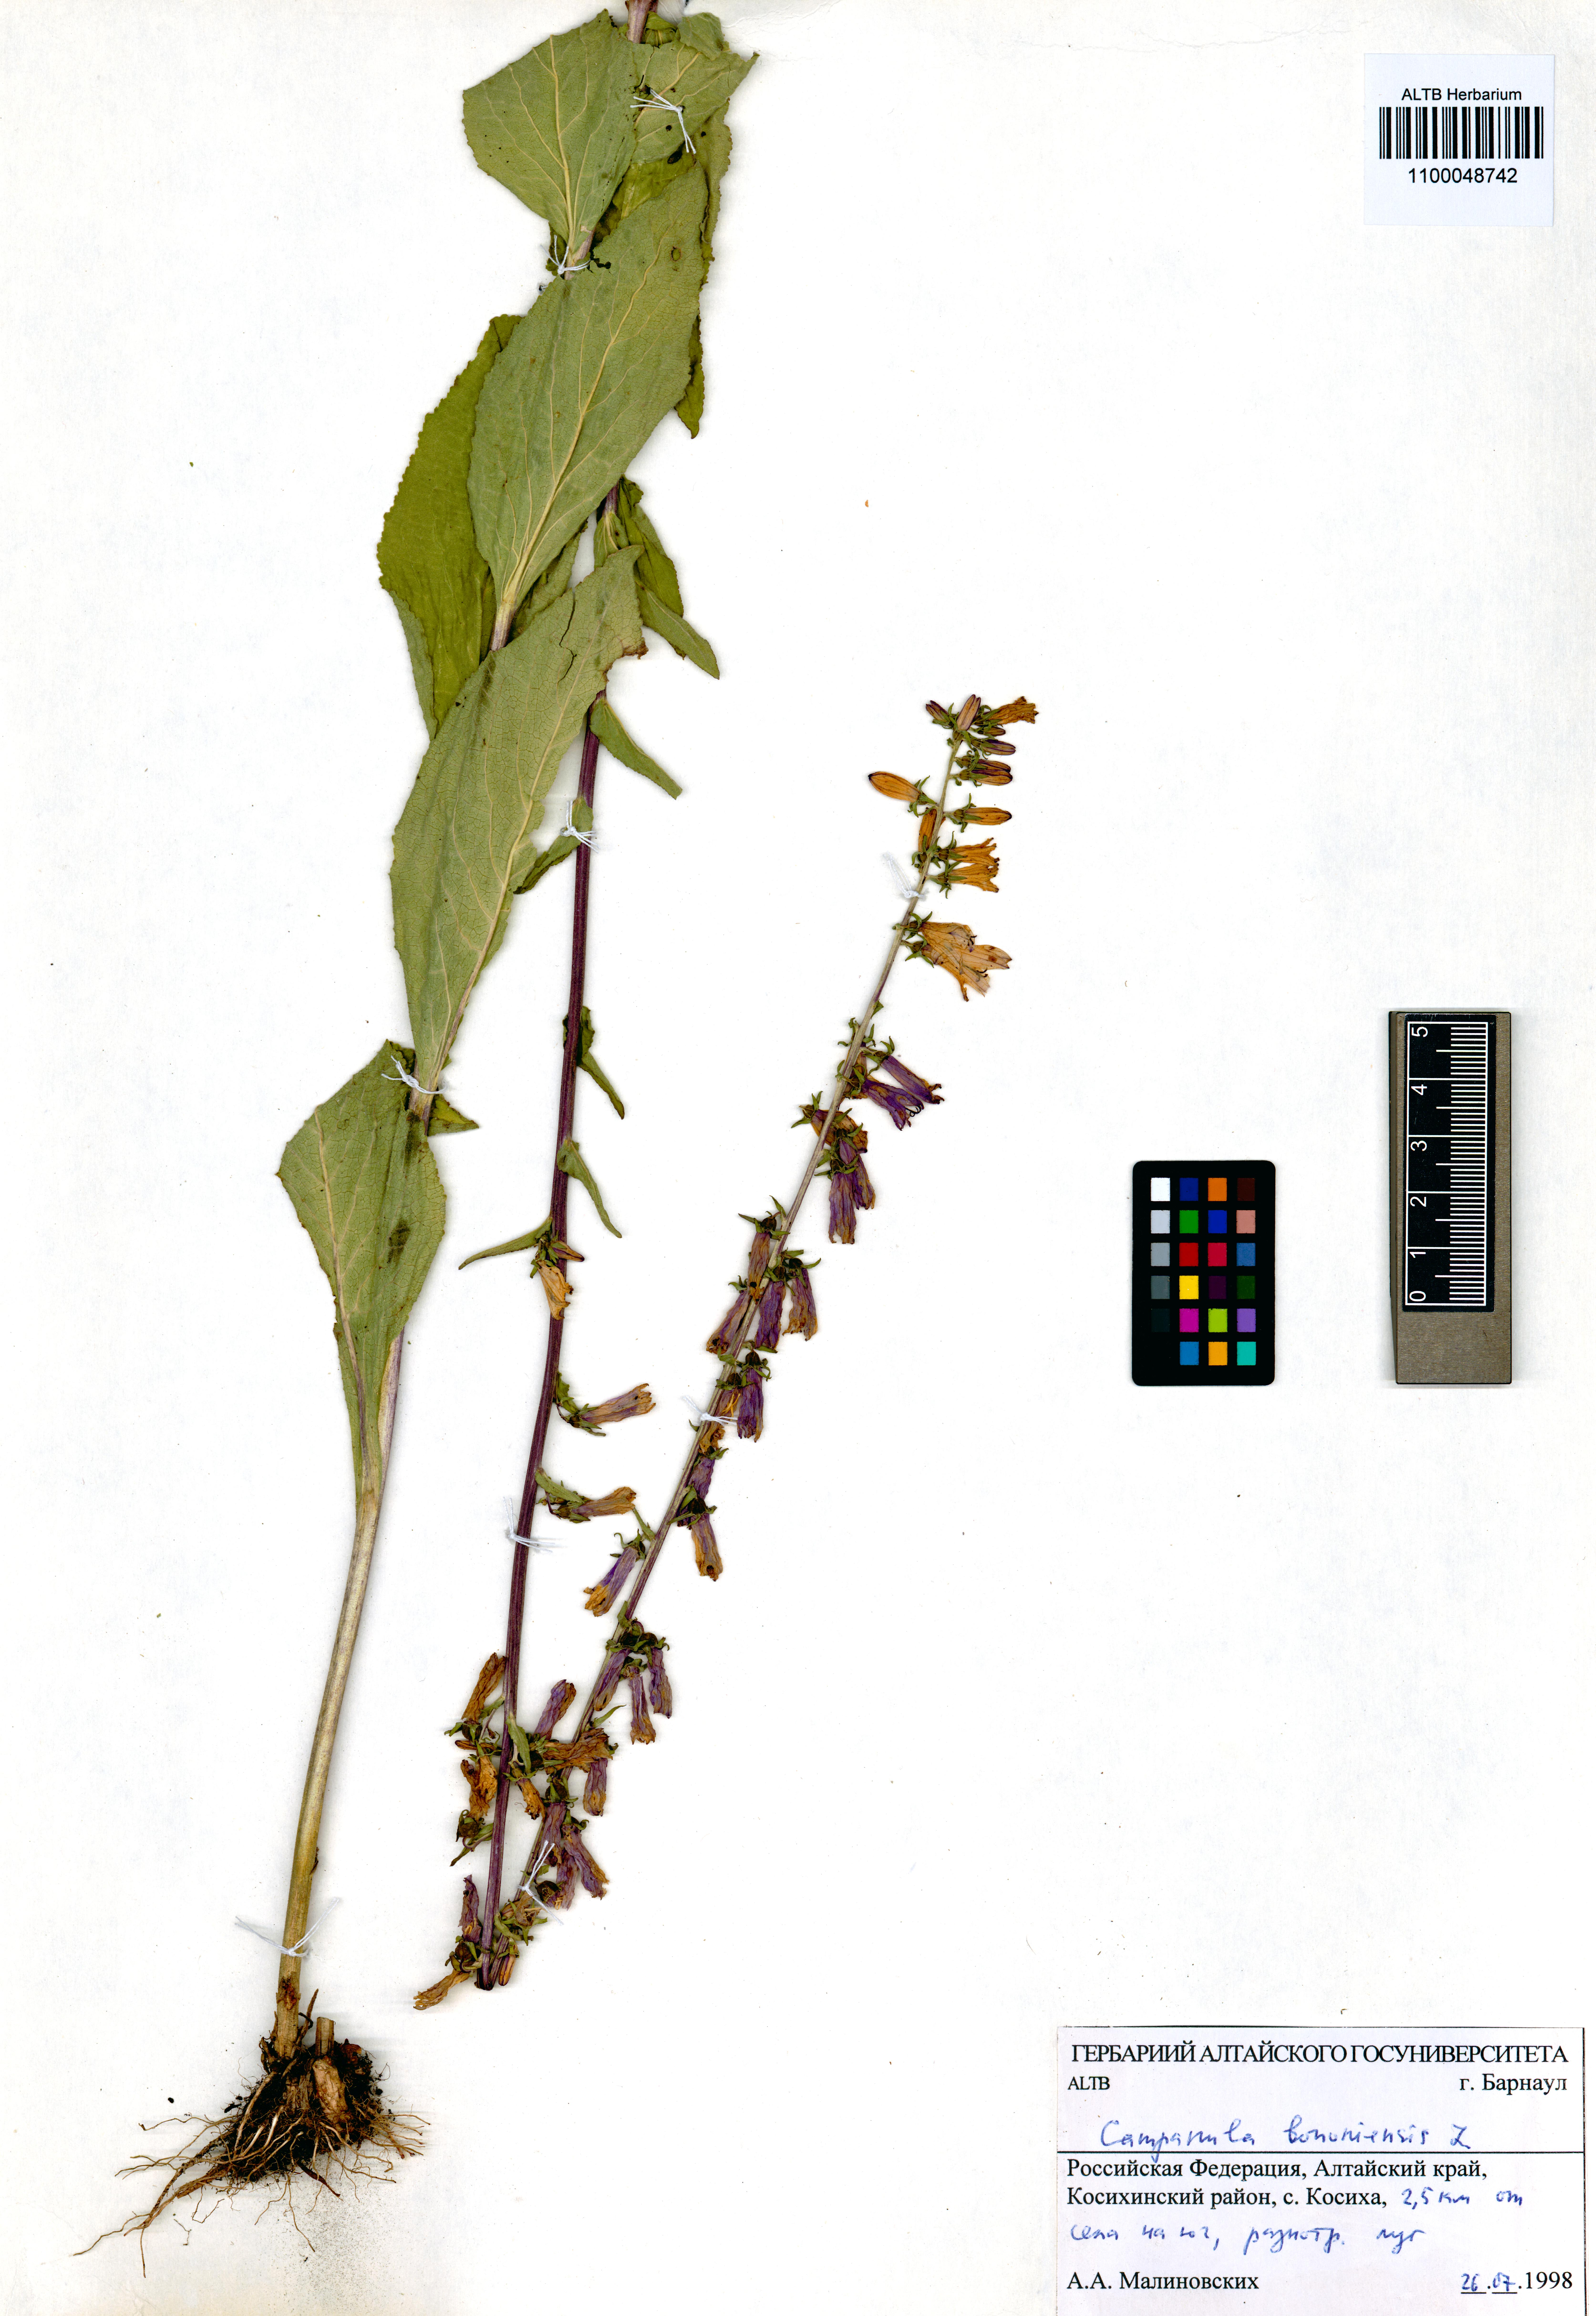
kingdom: Plantae
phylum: Tracheophyta
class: Magnoliopsida
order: Asterales
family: Campanulaceae
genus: Campanula
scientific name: Campanula bononiensis
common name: Pale bellflower
